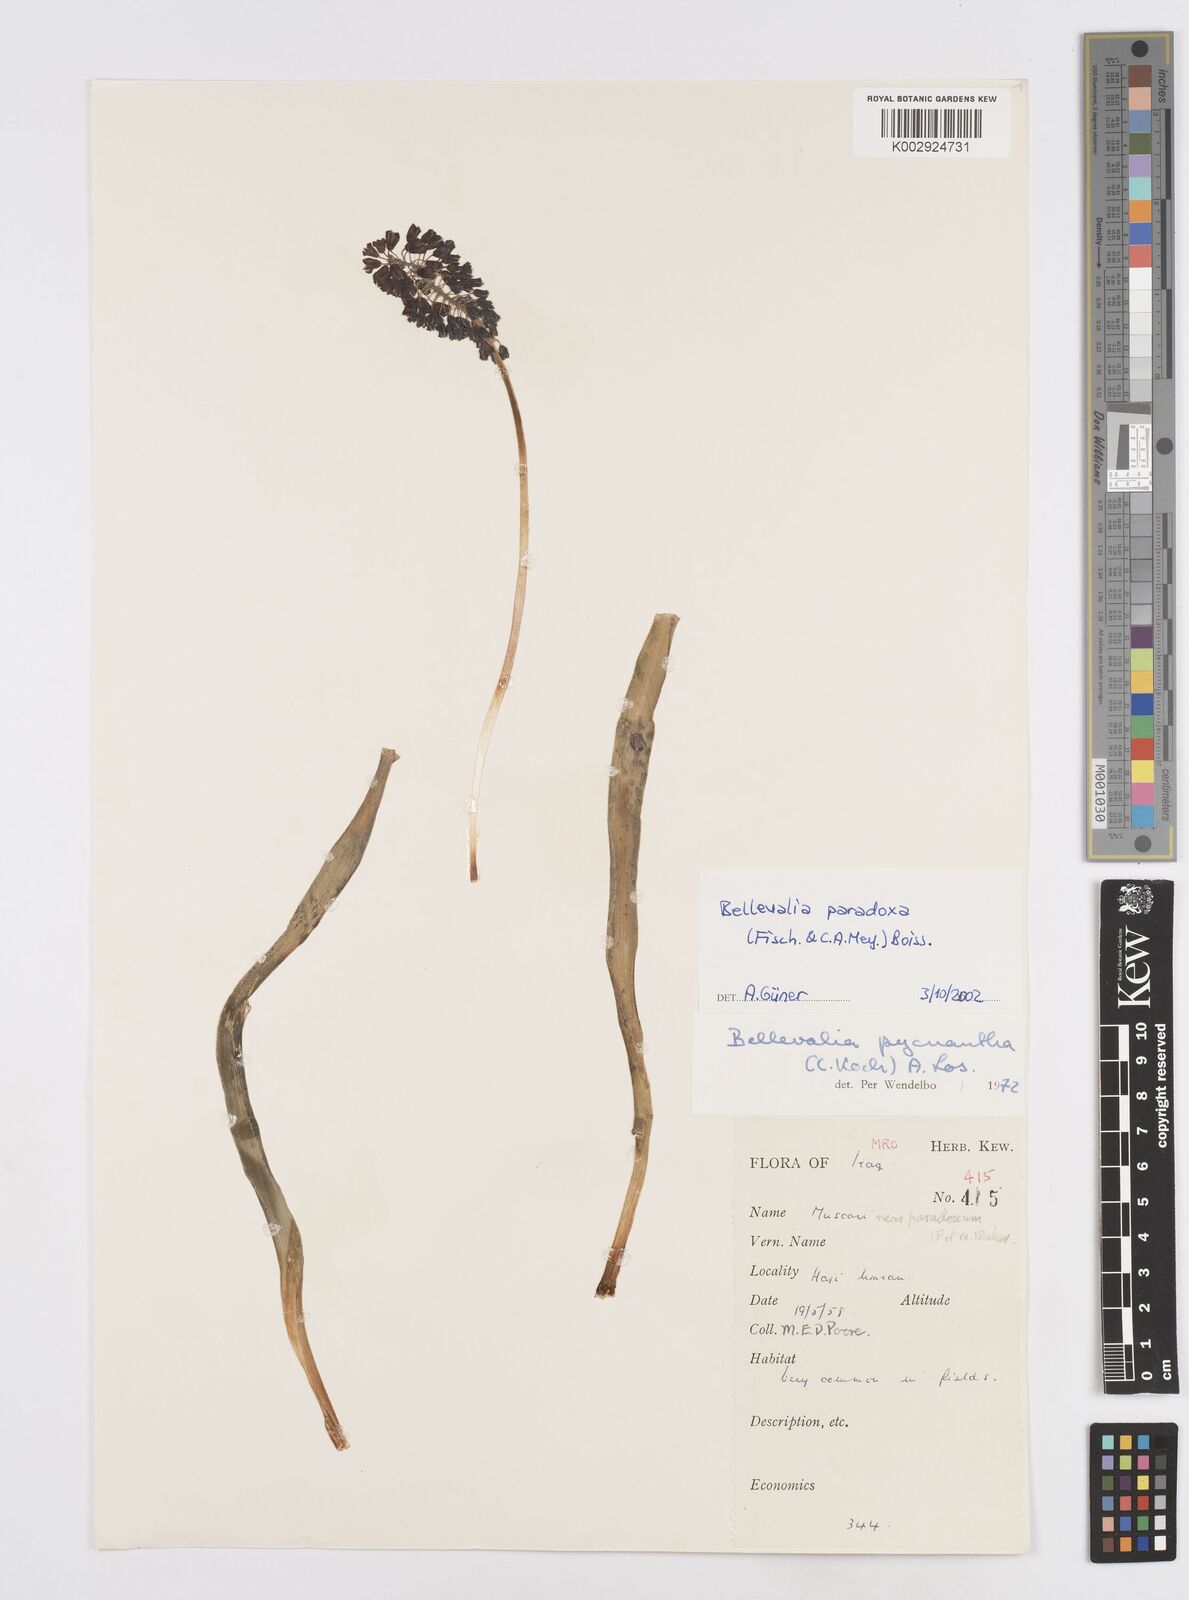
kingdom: Plantae
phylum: Tracheophyta
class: Liliopsida
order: Asparagales
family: Asparagaceae
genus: Bellevalia
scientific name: Bellevalia paradoxa
